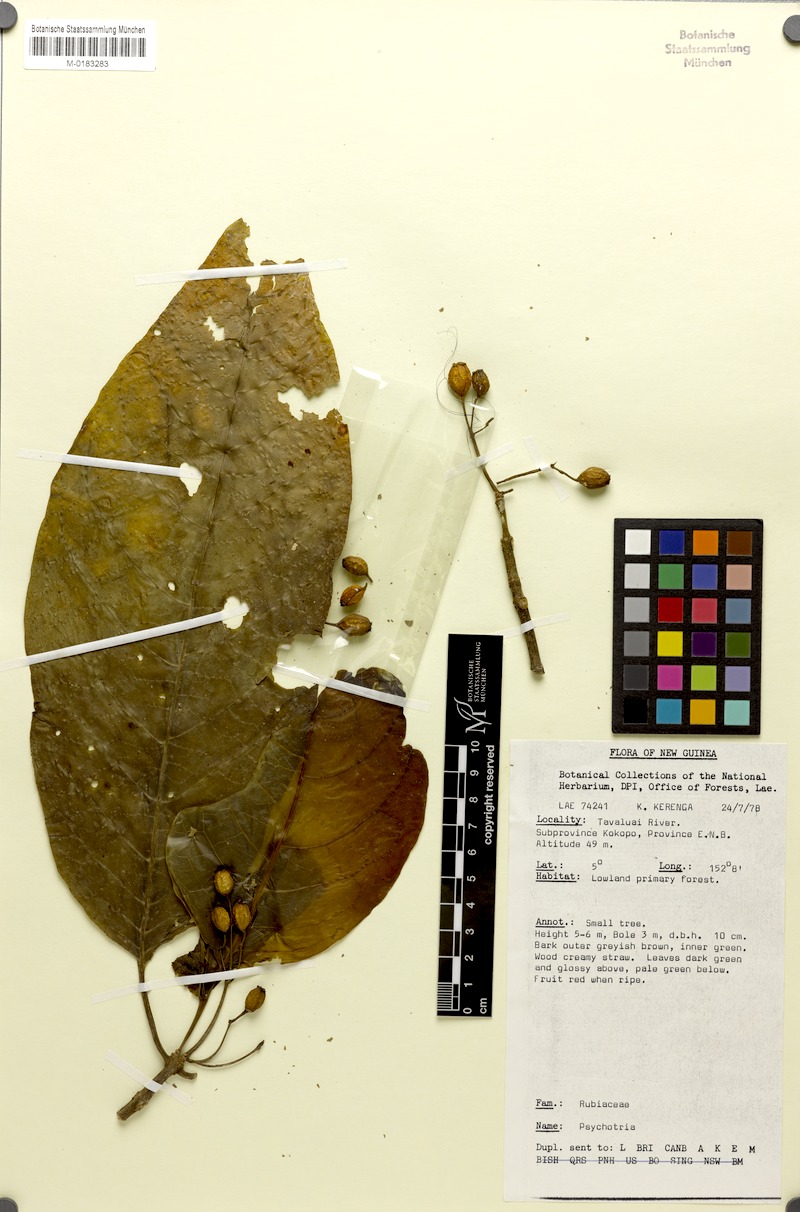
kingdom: Plantae
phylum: Tracheophyta
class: Magnoliopsida
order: Gentianales
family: Rubiaceae
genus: Eumachia
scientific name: Eumachia damasiana
